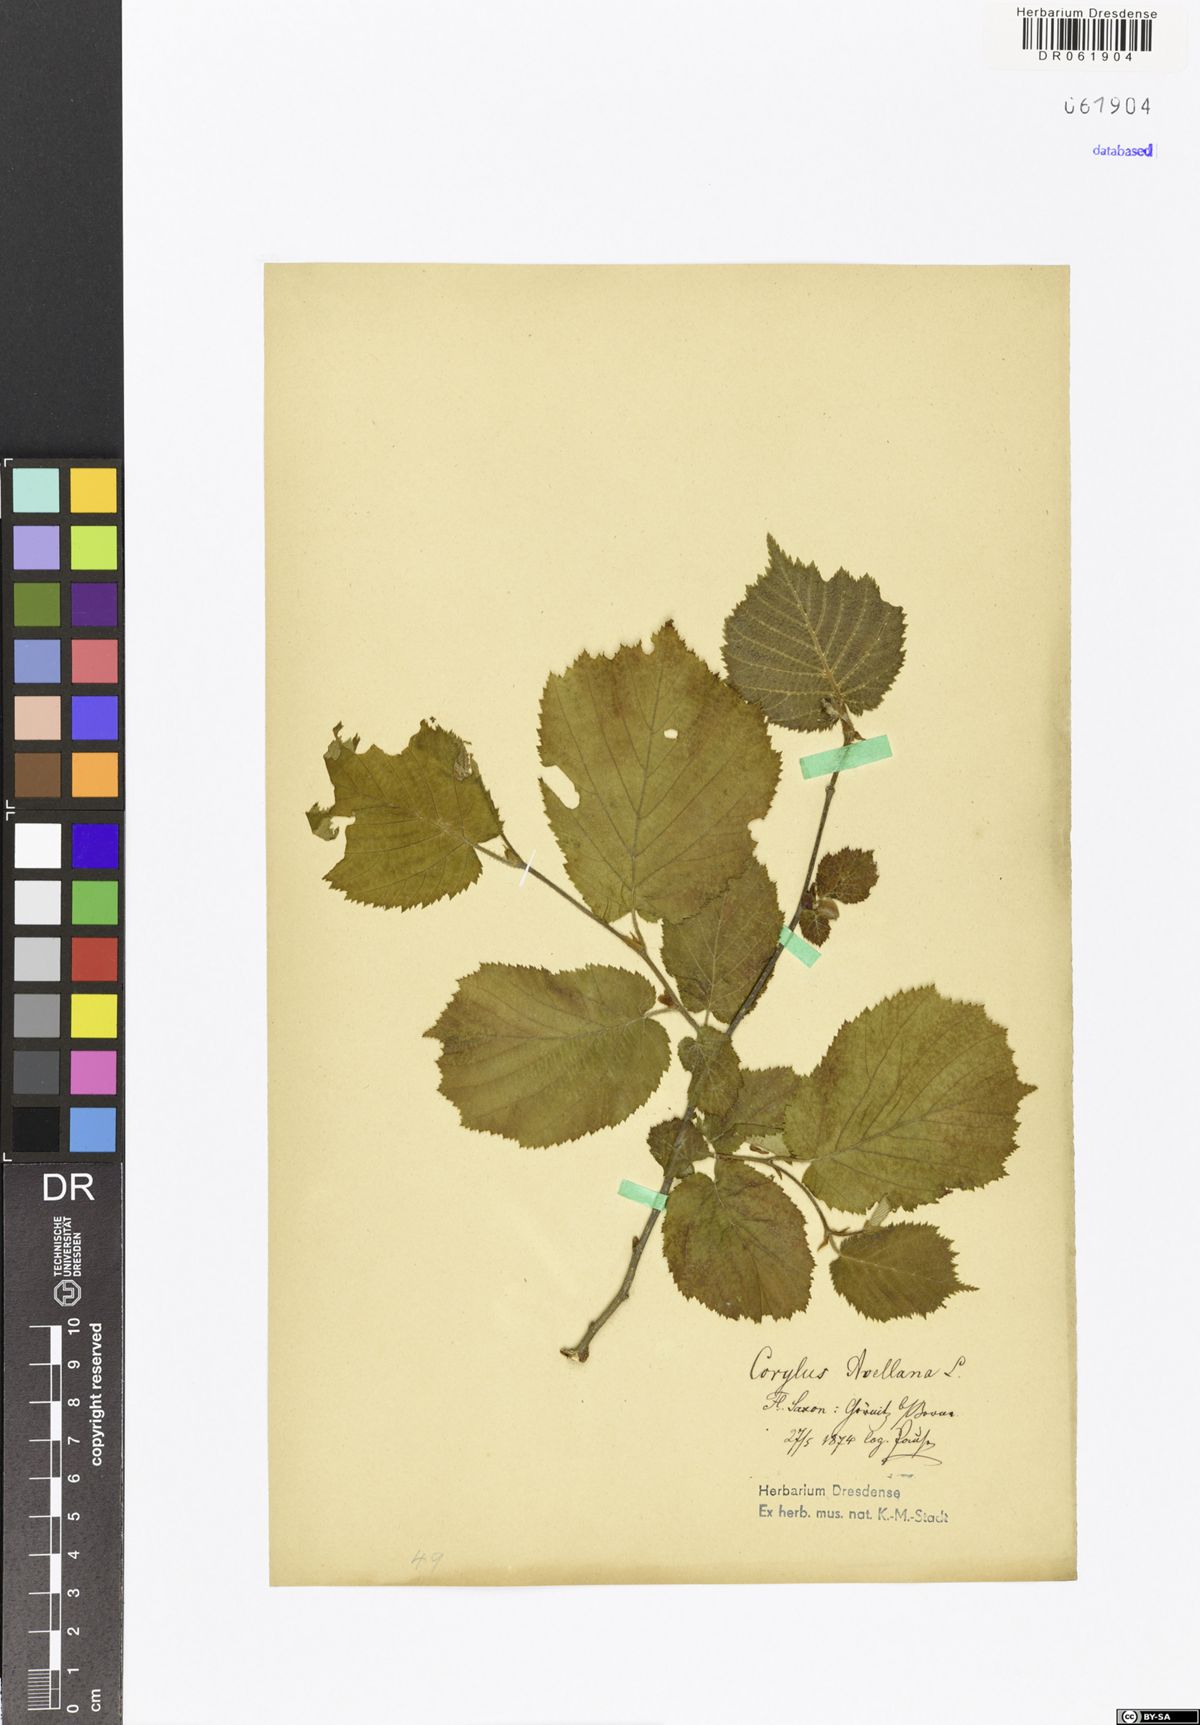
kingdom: Plantae
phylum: Tracheophyta
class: Magnoliopsida
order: Fagales
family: Betulaceae
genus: Corylus
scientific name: Corylus avellana
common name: European hazel
